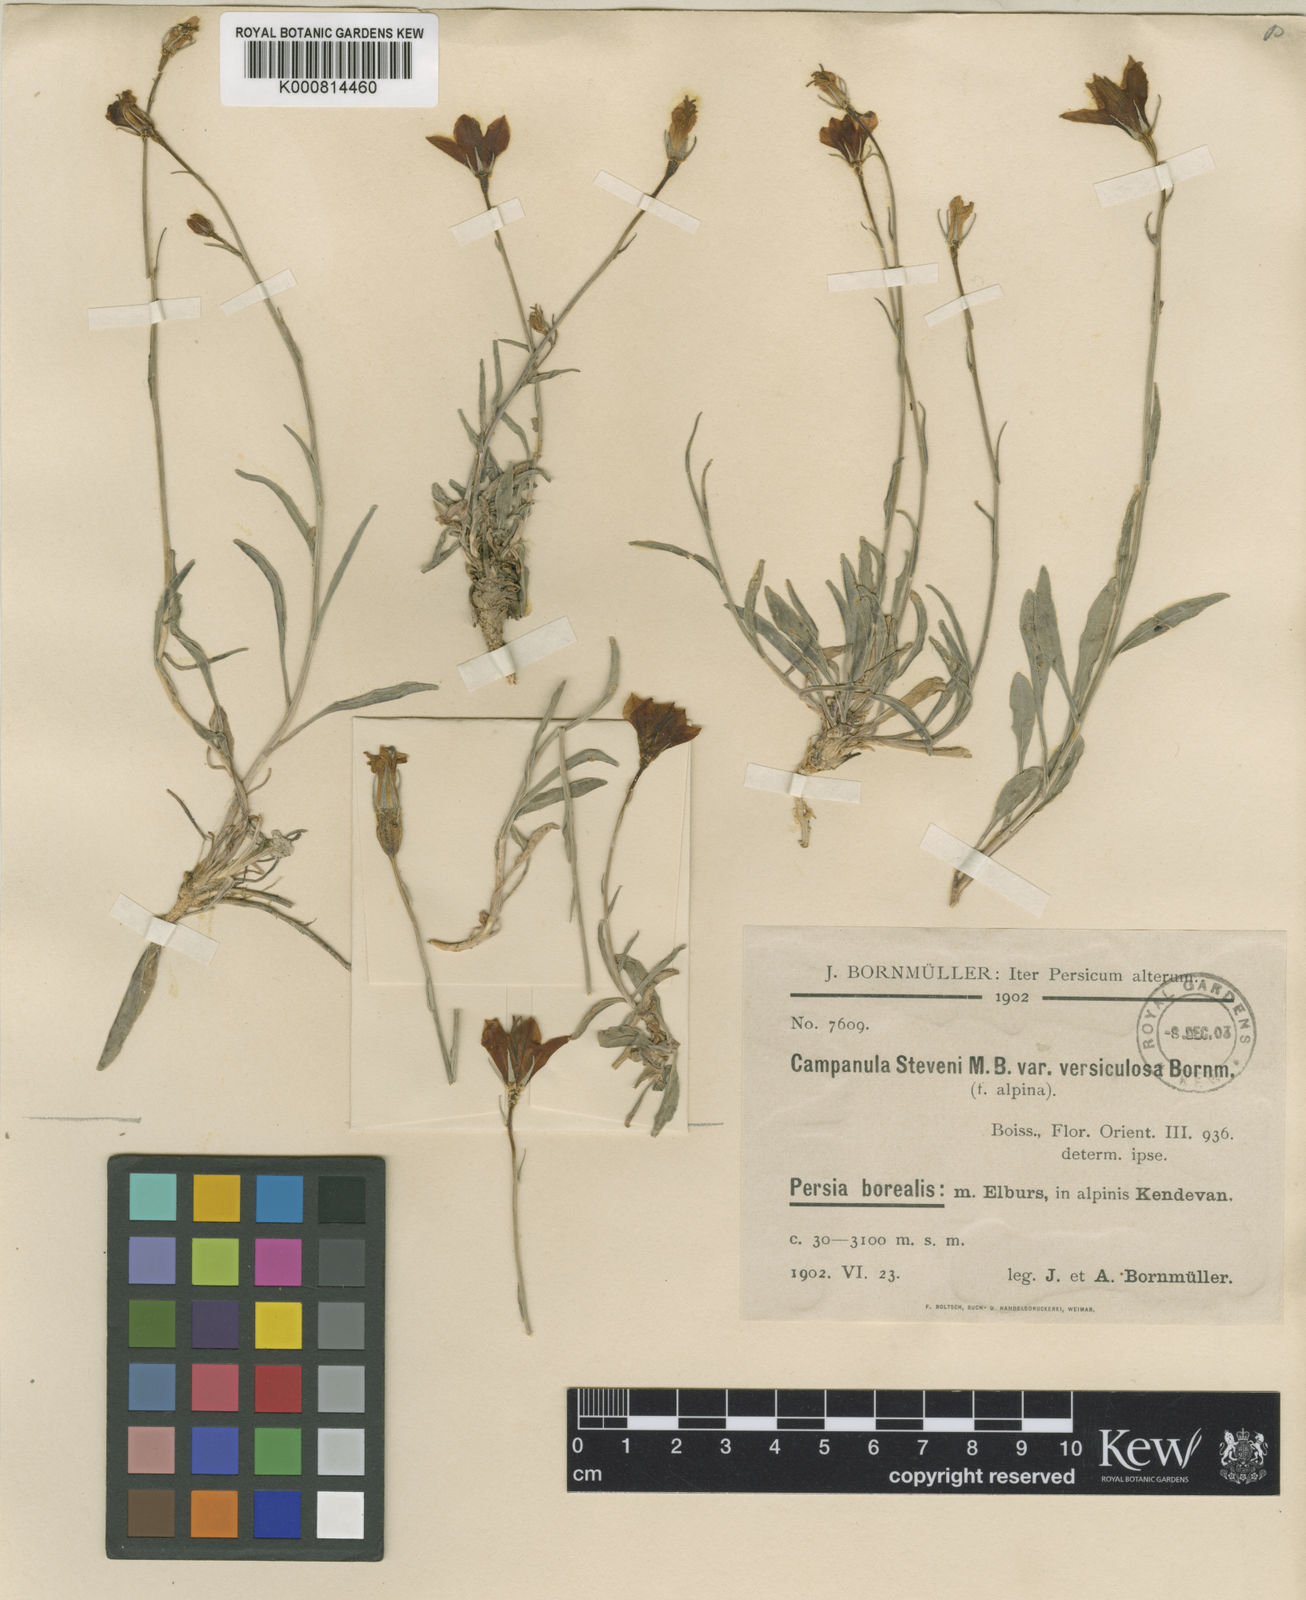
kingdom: Plantae
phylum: Tracheophyta
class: Magnoliopsida
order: Asterales
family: Campanulaceae
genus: Campanula
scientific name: Campanula stevenii
